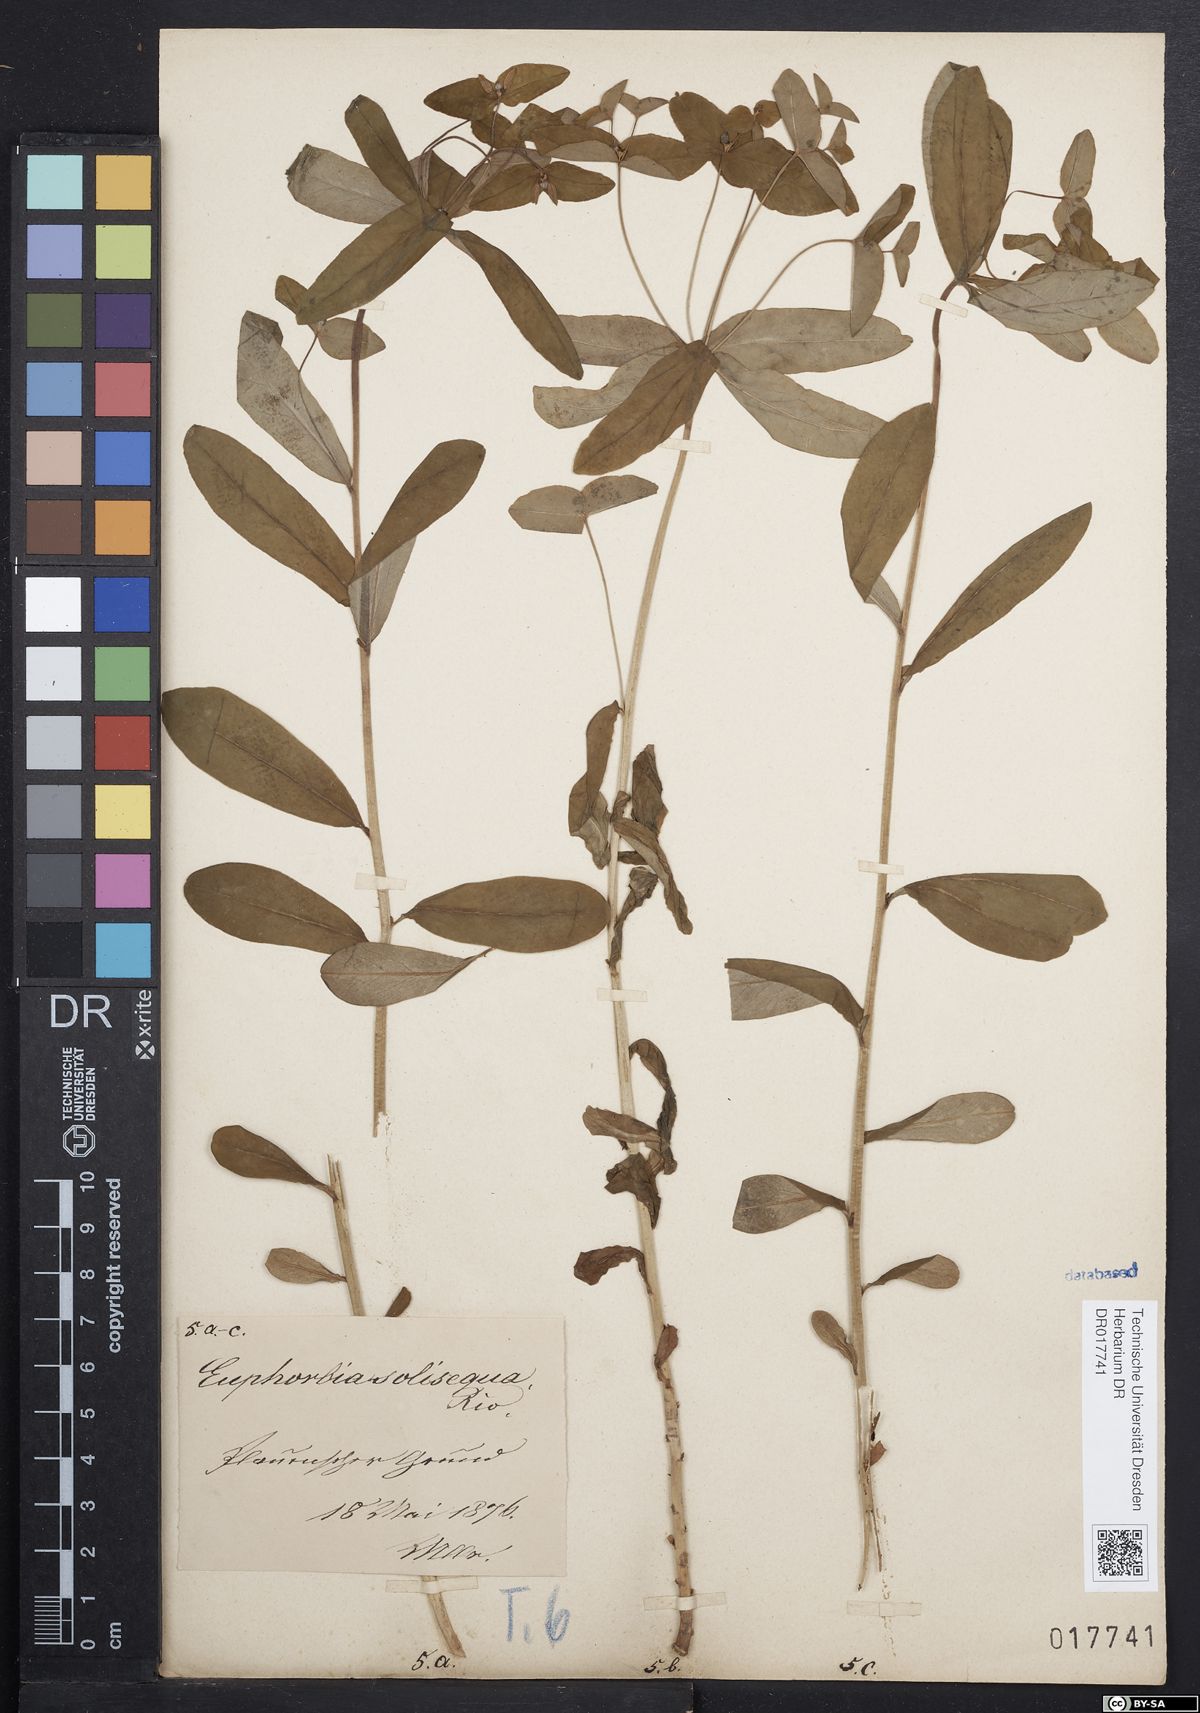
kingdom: Plantae
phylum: Tracheophyta
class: Magnoliopsida
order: Malpighiales
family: Euphorbiaceae
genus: Euphorbia
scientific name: Euphorbia dulcis
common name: Sweet spurge
